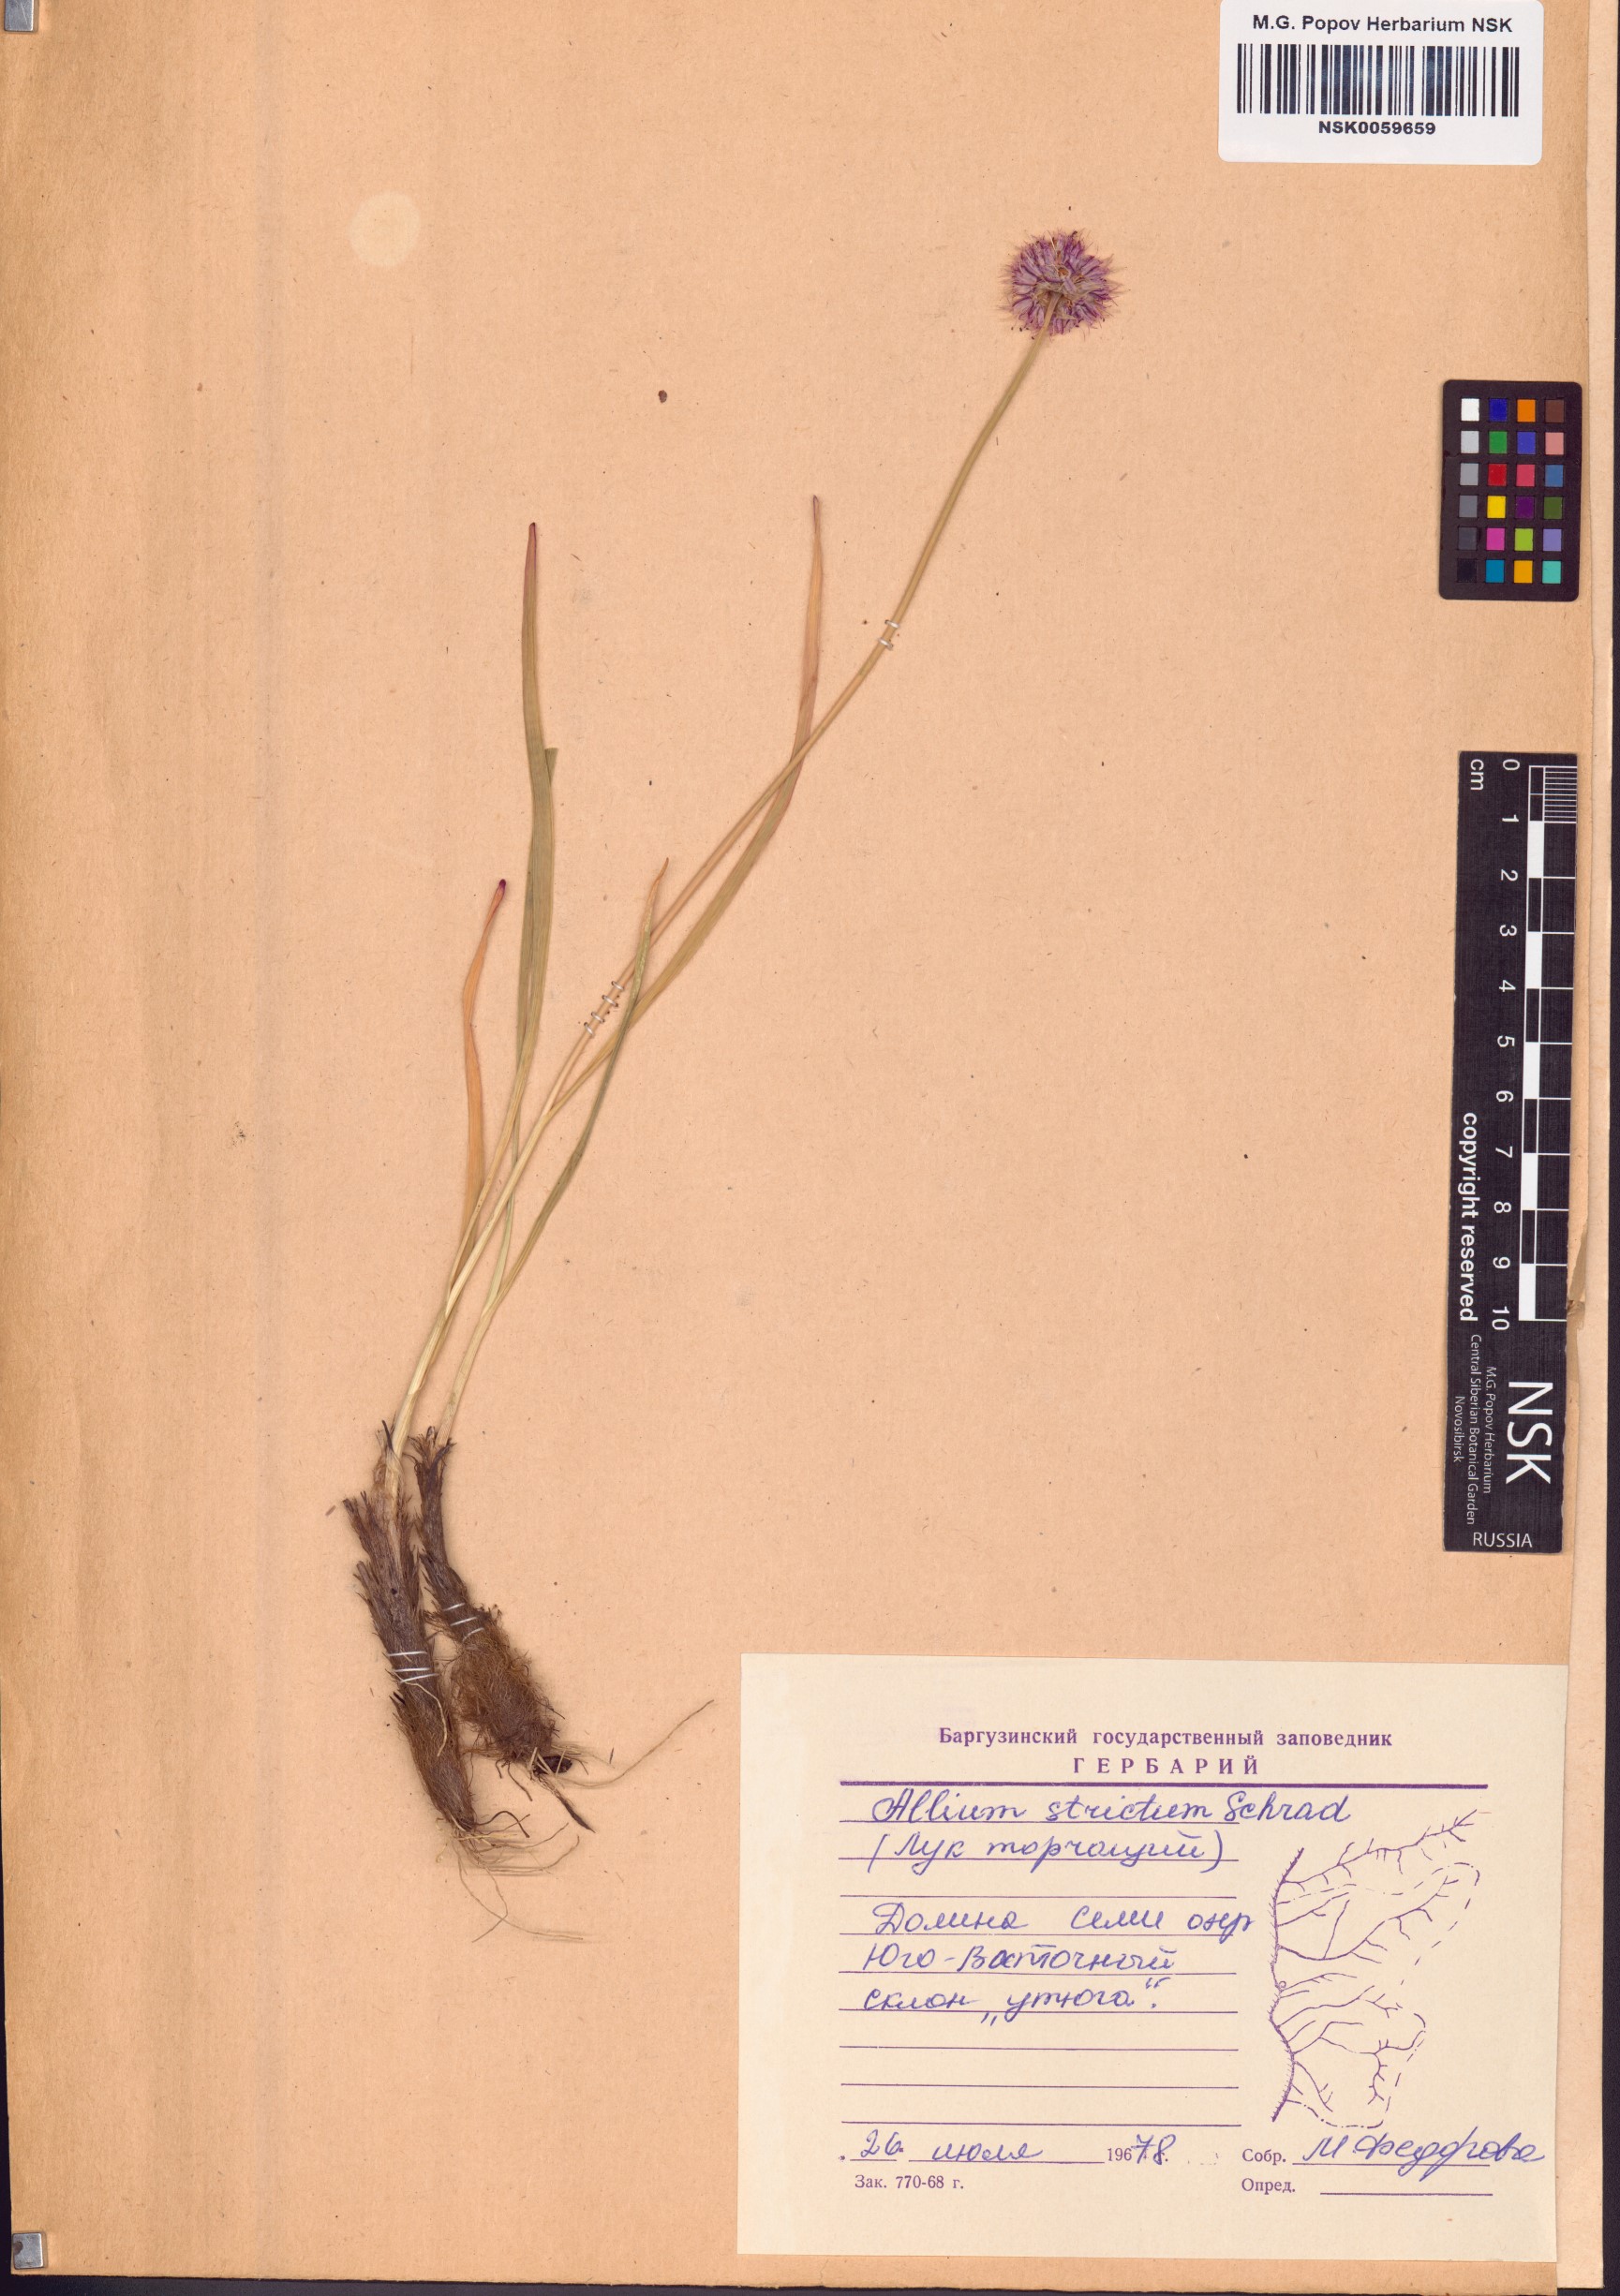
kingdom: Plantae
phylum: Tracheophyta
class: Liliopsida
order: Asparagales
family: Amaryllidaceae
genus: Allium
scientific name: Allium strictum
